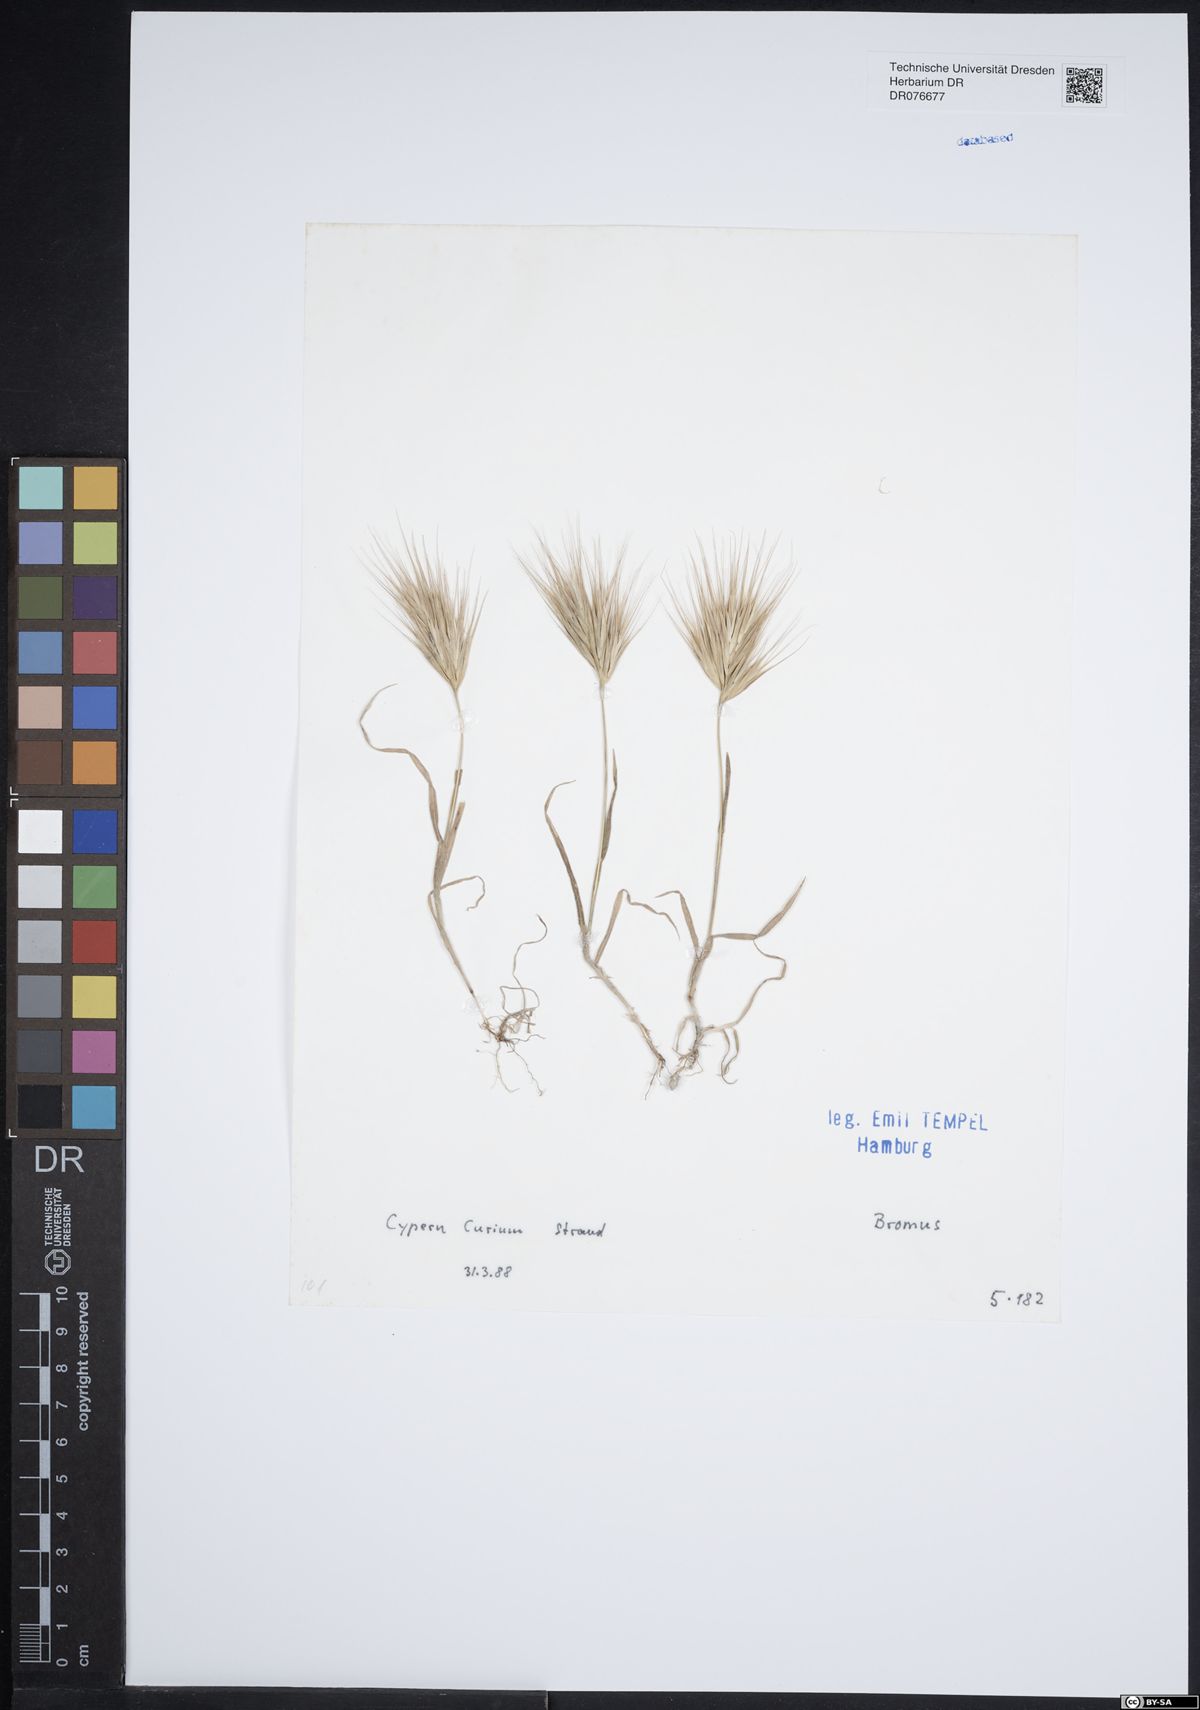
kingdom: Plantae
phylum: Tracheophyta
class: Liliopsida
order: Poales
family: Poaceae
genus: Bromus
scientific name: Bromus
